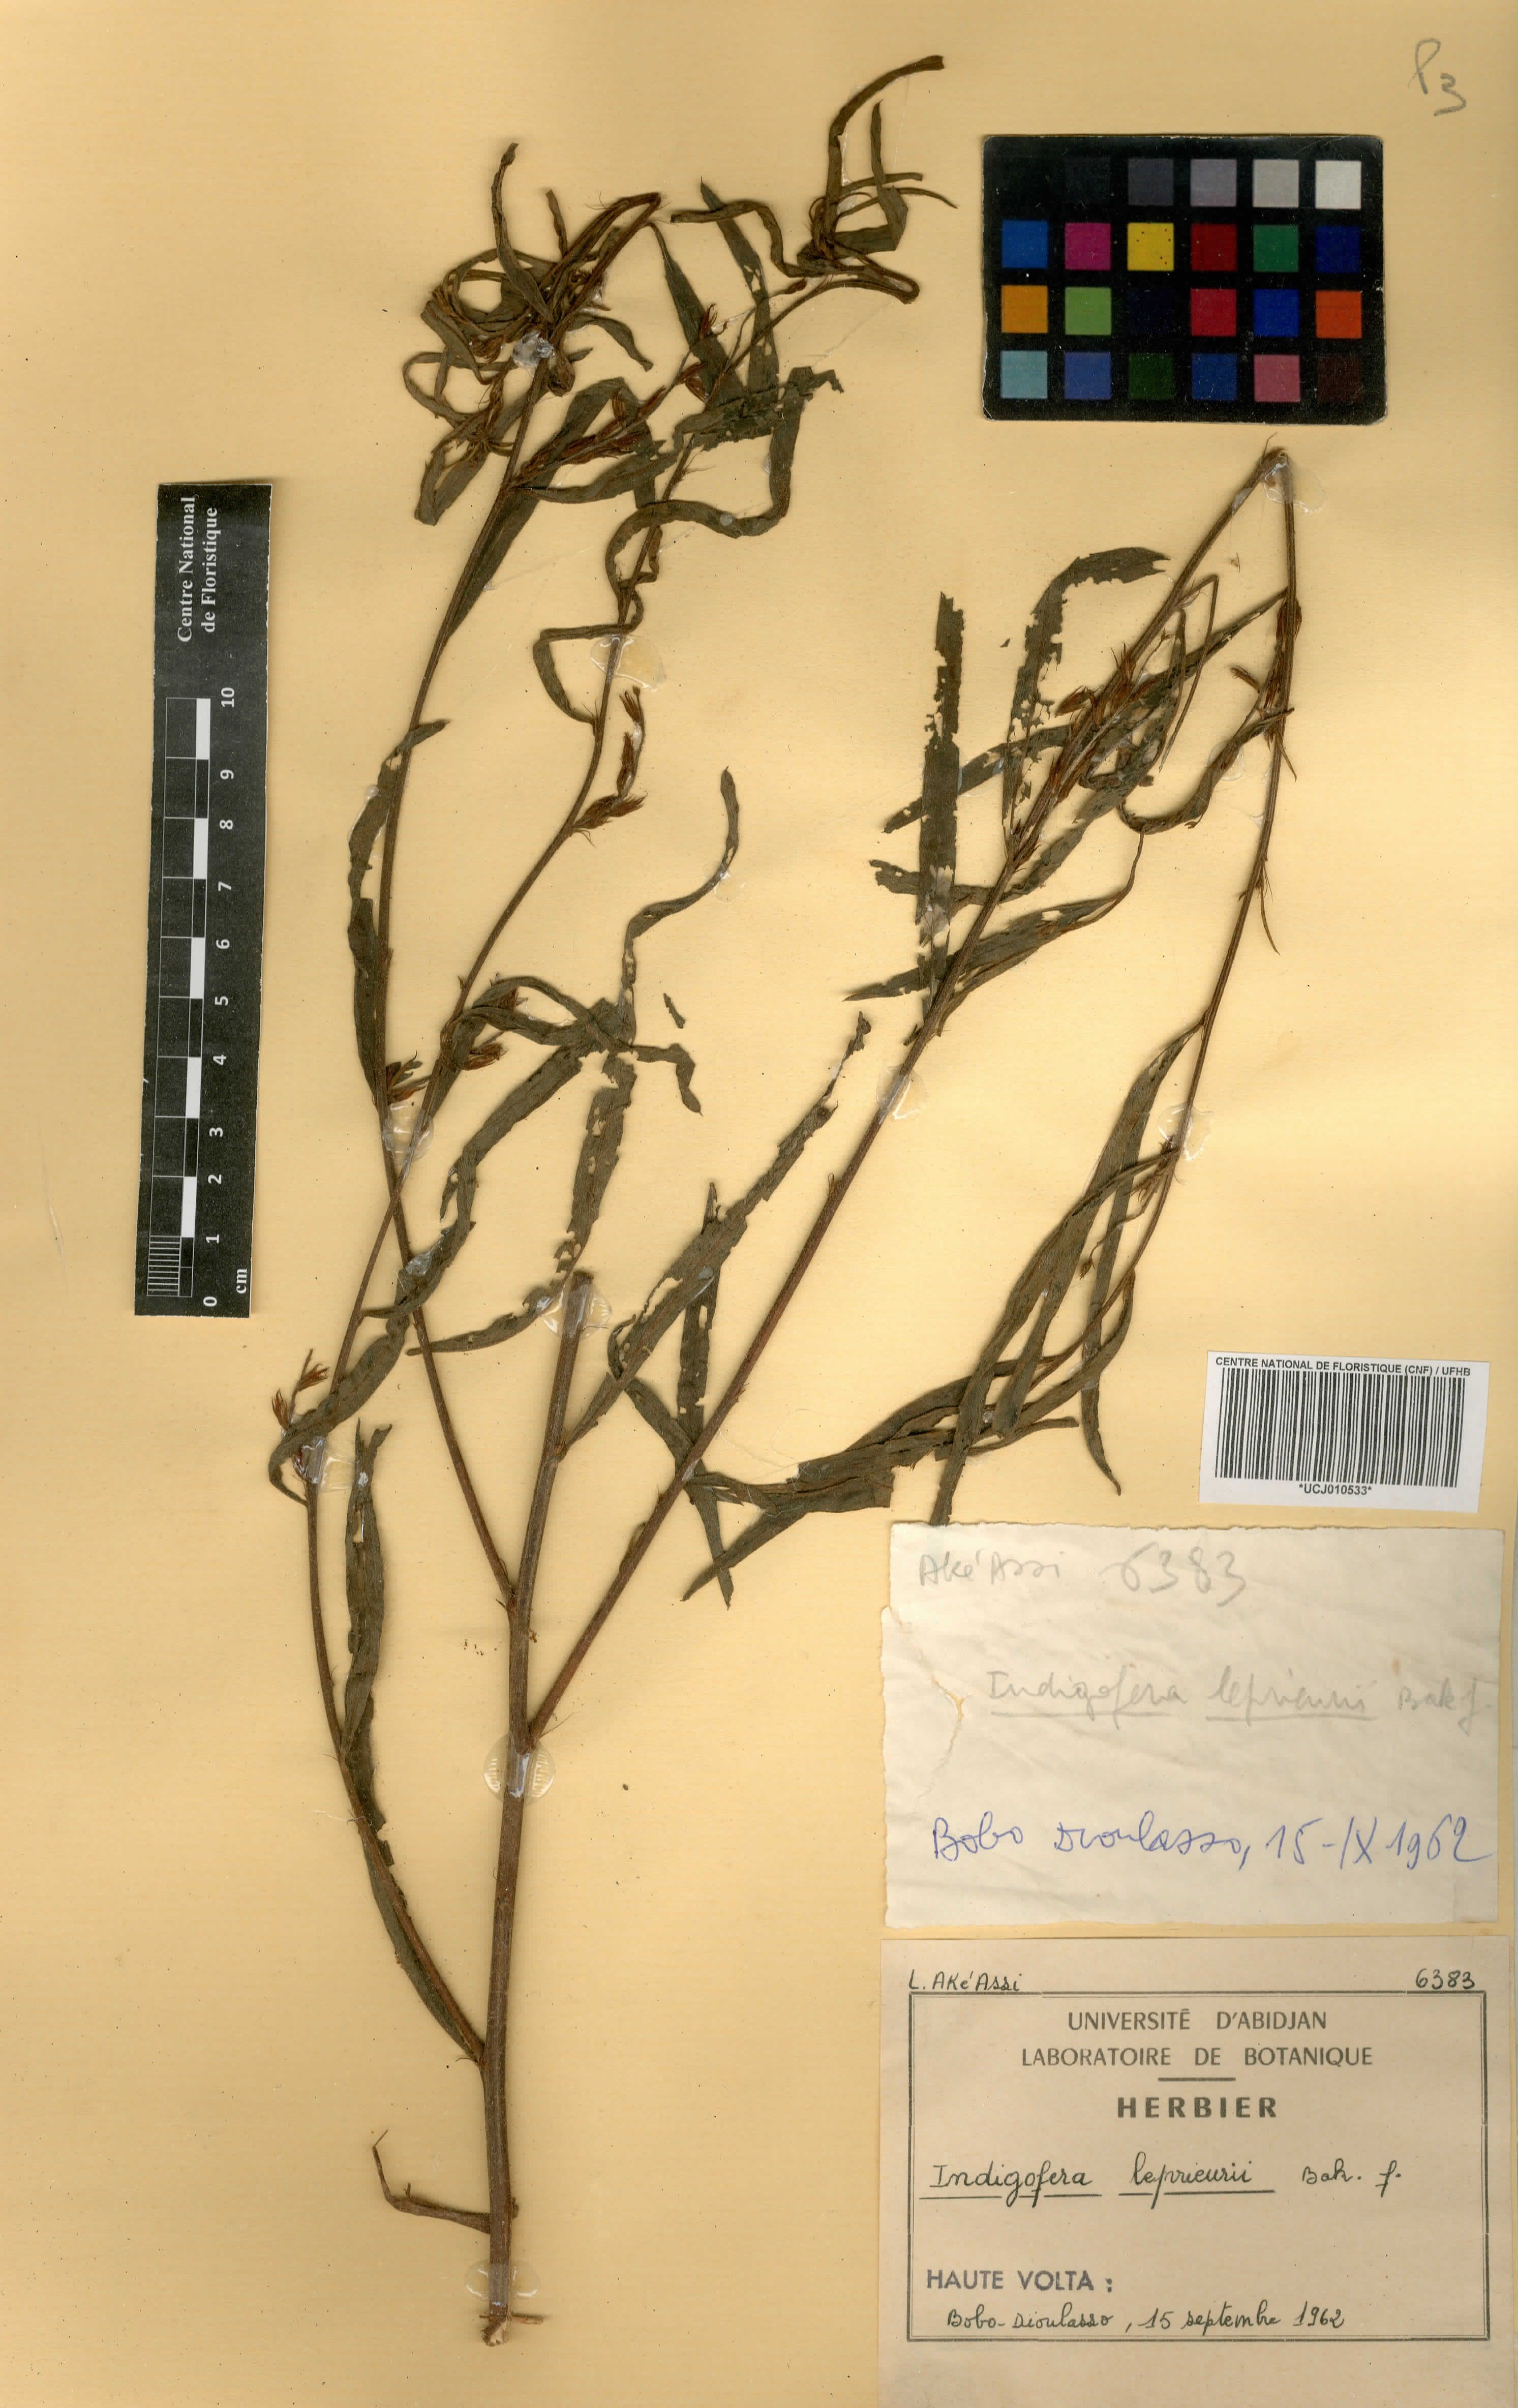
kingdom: Plantae
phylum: Tracheophyta
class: Magnoliopsida
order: Fabales
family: Fabaceae
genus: Indigofera
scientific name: Indigofera leprieurii
